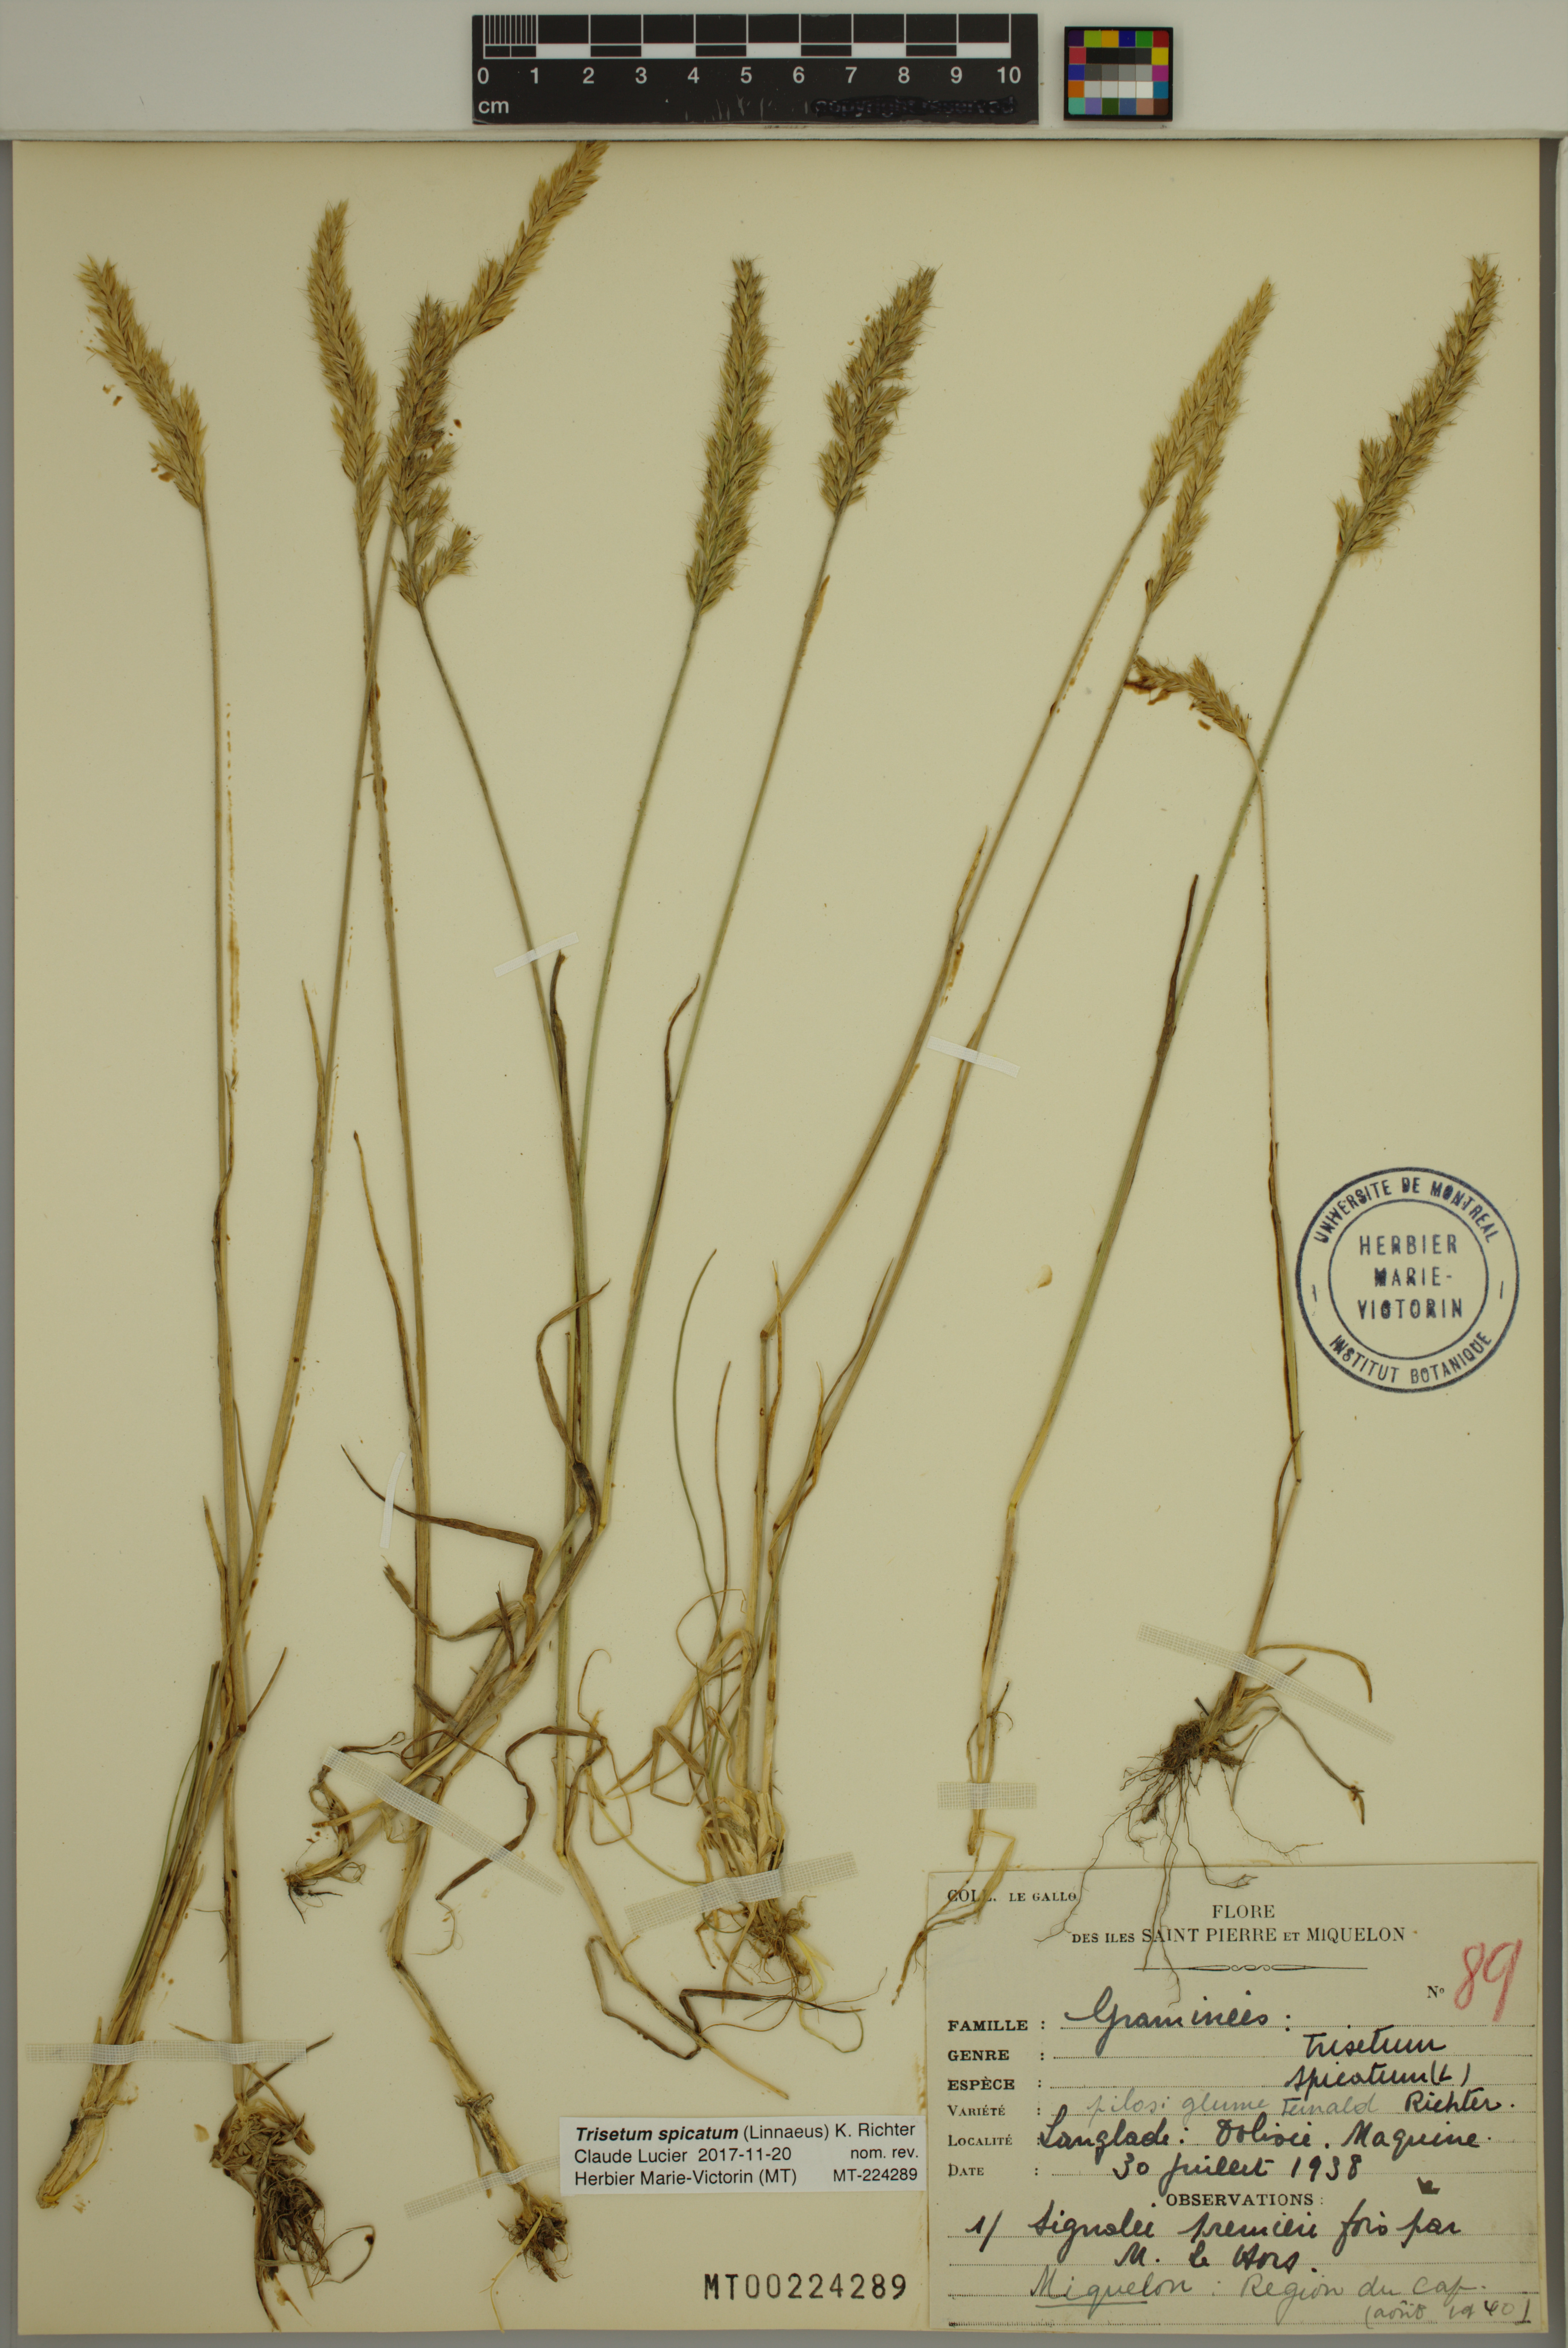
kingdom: Plantae
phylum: Tracheophyta
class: Liliopsida
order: Poales
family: Poaceae
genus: Koeleria
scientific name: Koeleria spicata
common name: Mountain trisetum
